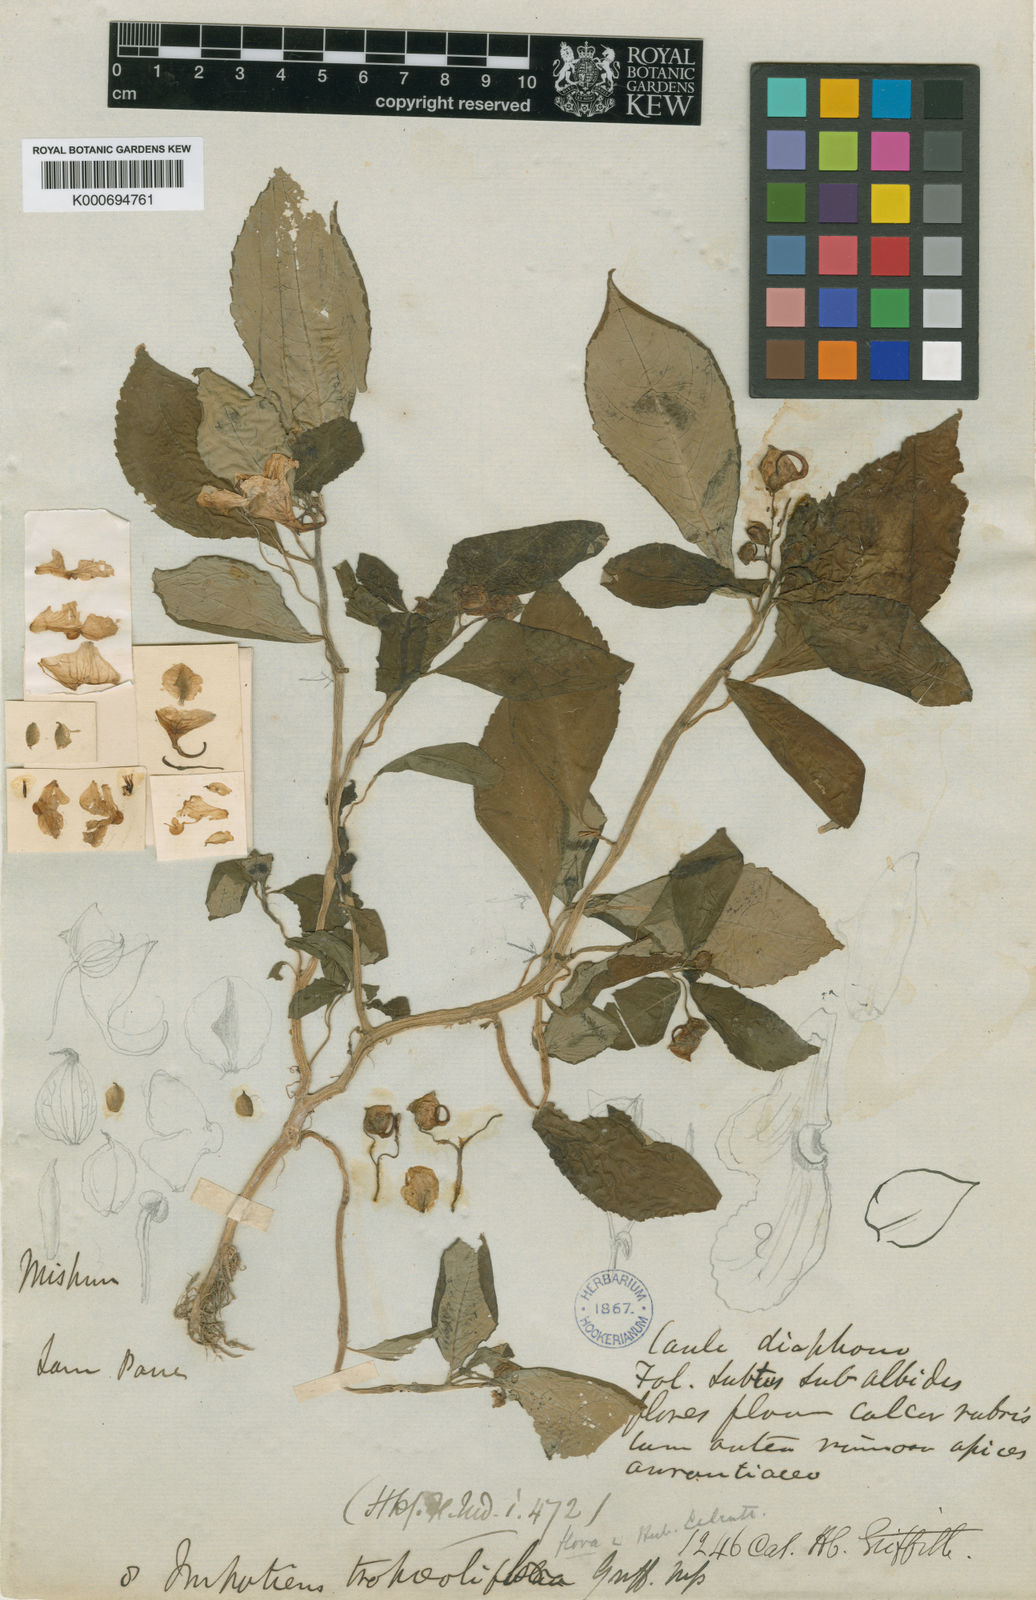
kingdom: Plantae
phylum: Tracheophyta
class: Magnoliopsida
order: Ericales
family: Balsaminaceae
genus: Impatiens
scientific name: Impatiens tropaeolifolia
